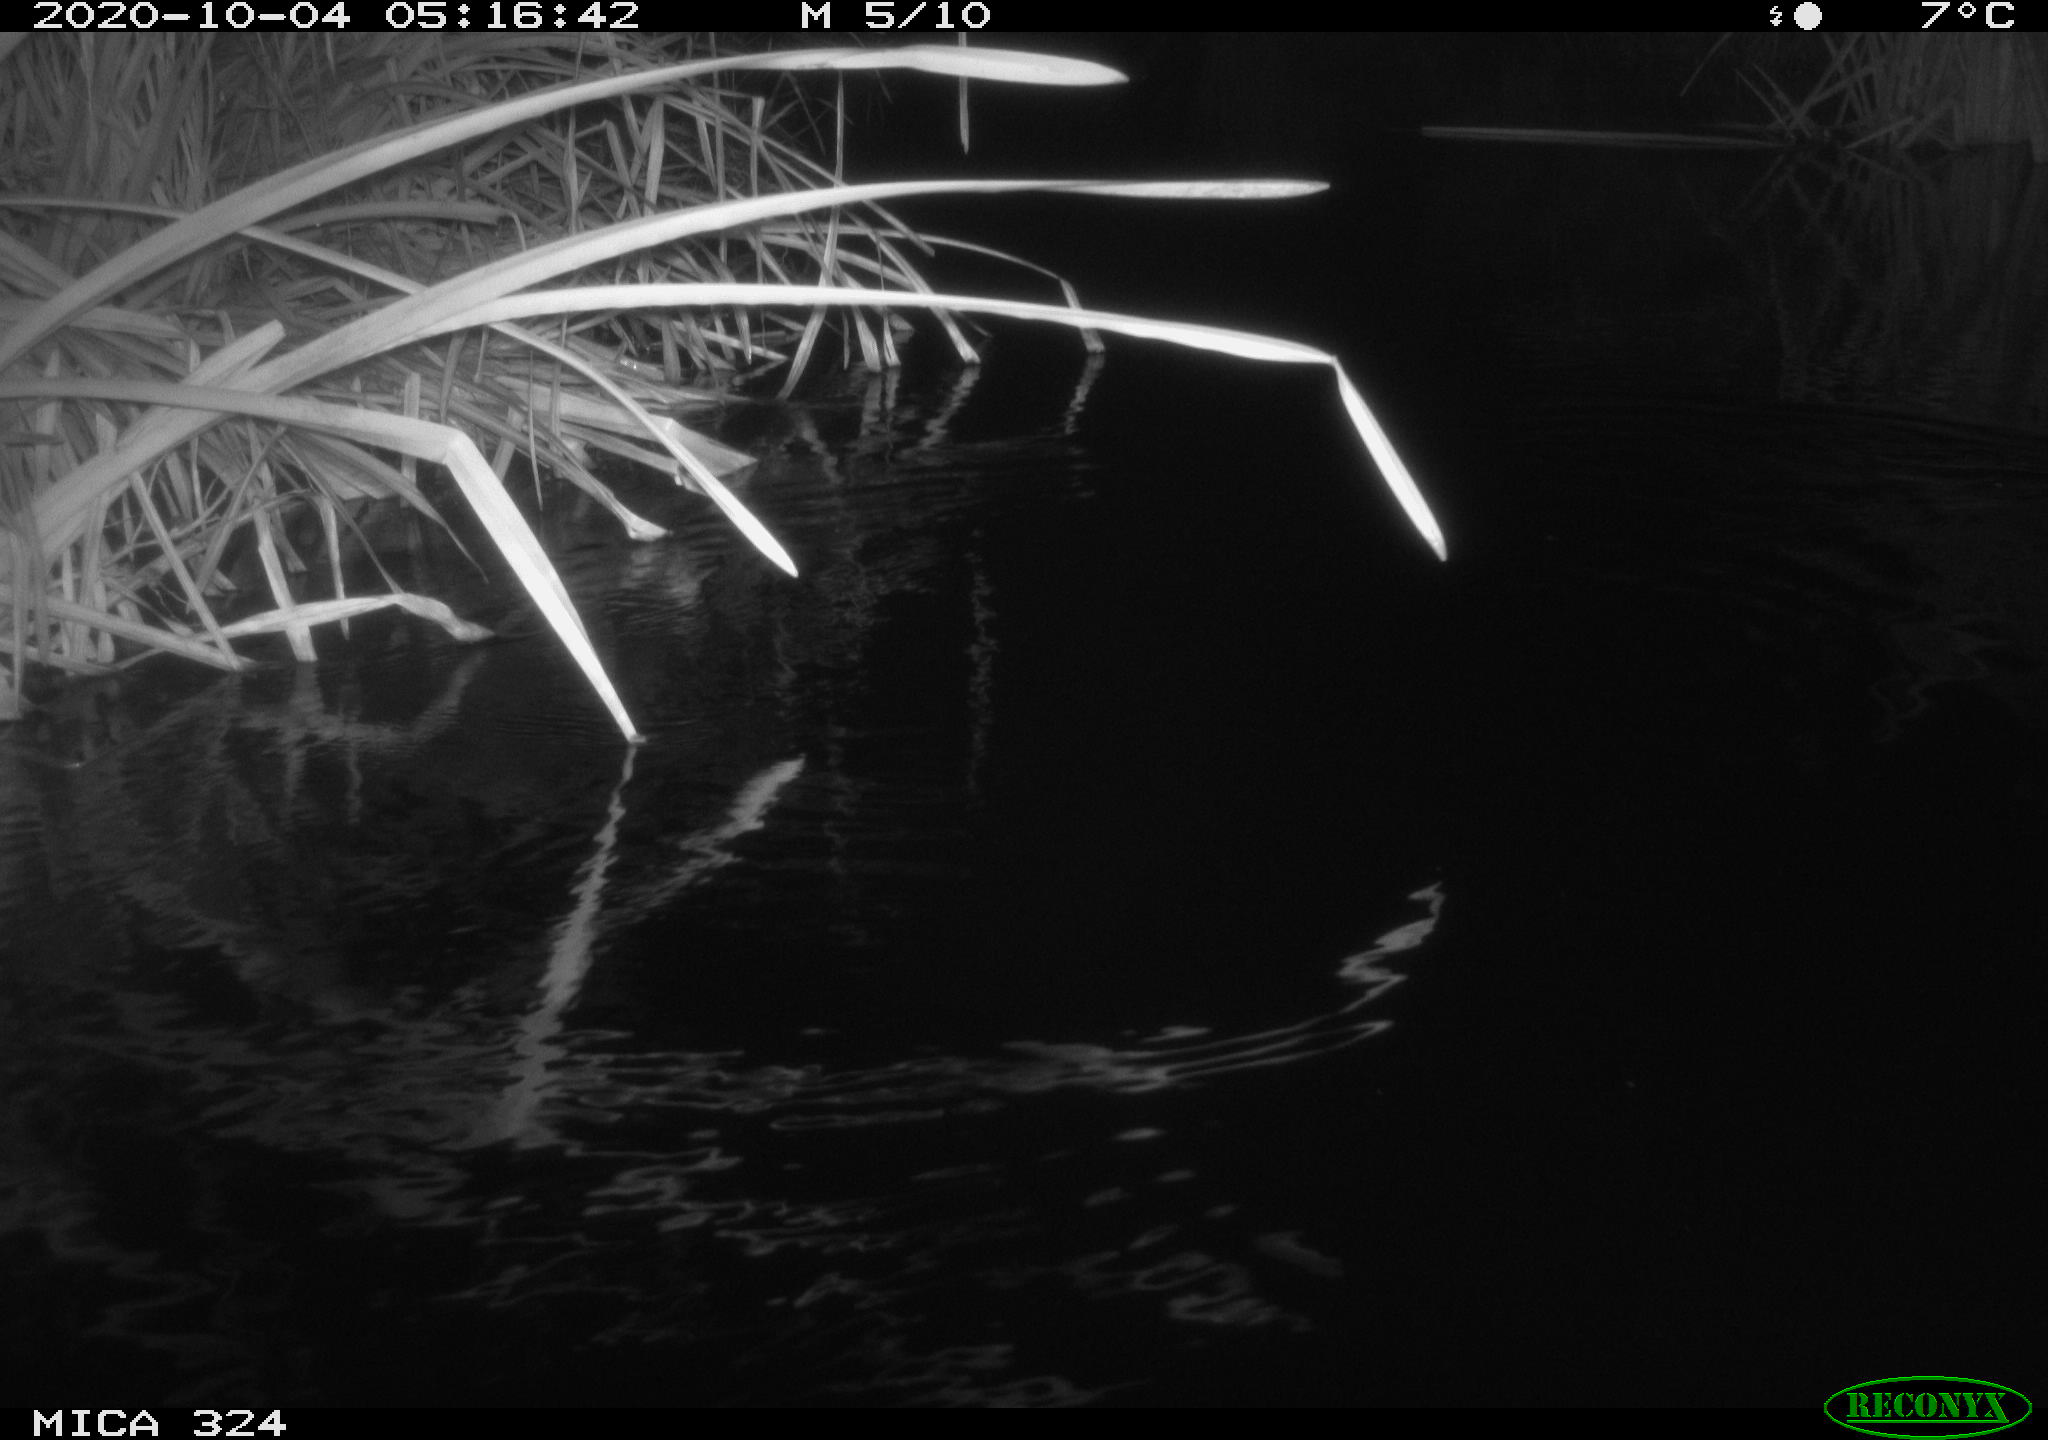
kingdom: Animalia
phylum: Chordata
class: Mammalia
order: Rodentia
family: Cricetidae
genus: Ondatra
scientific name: Ondatra zibethicus
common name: Muskrat
